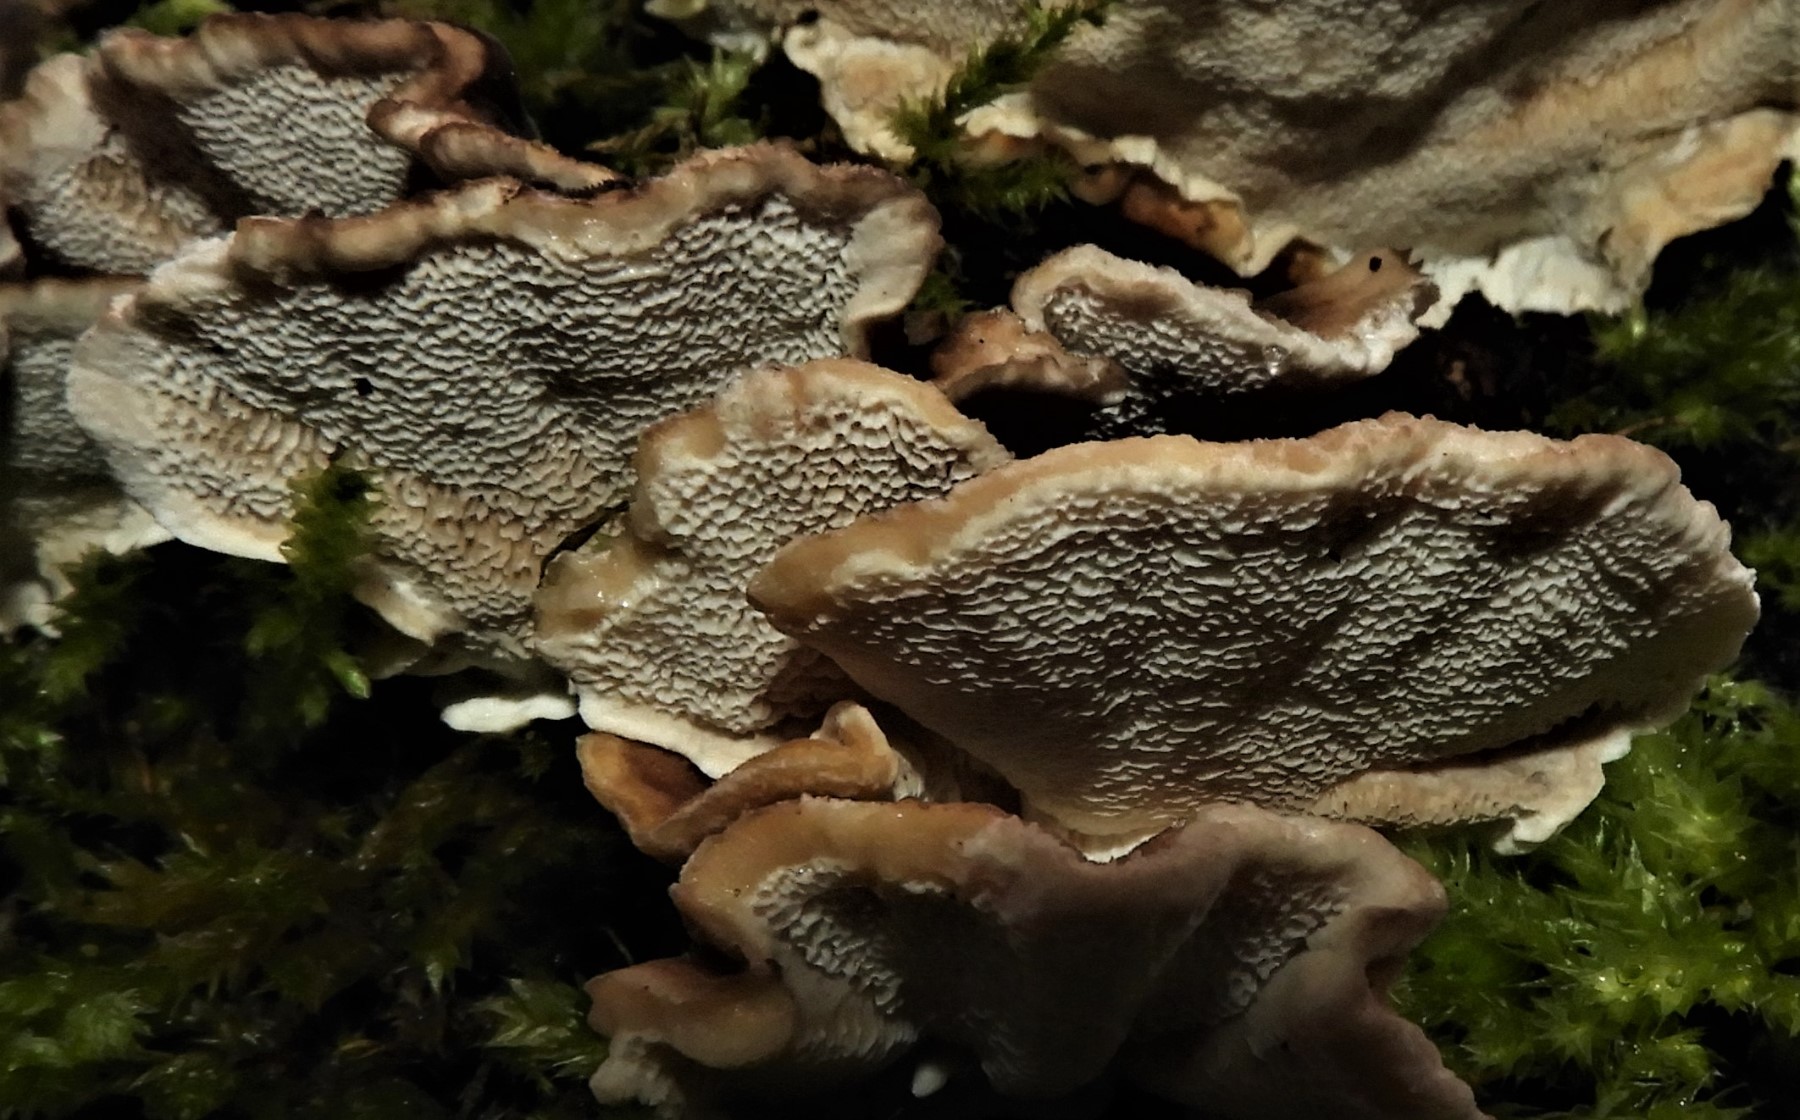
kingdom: Fungi
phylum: Basidiomycota
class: Agaricomycetes
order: Polyporales
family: Phanerochaetaceae
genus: Bjerkandera
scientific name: Bjerkandera adusta
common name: sveden sodporesvamp
